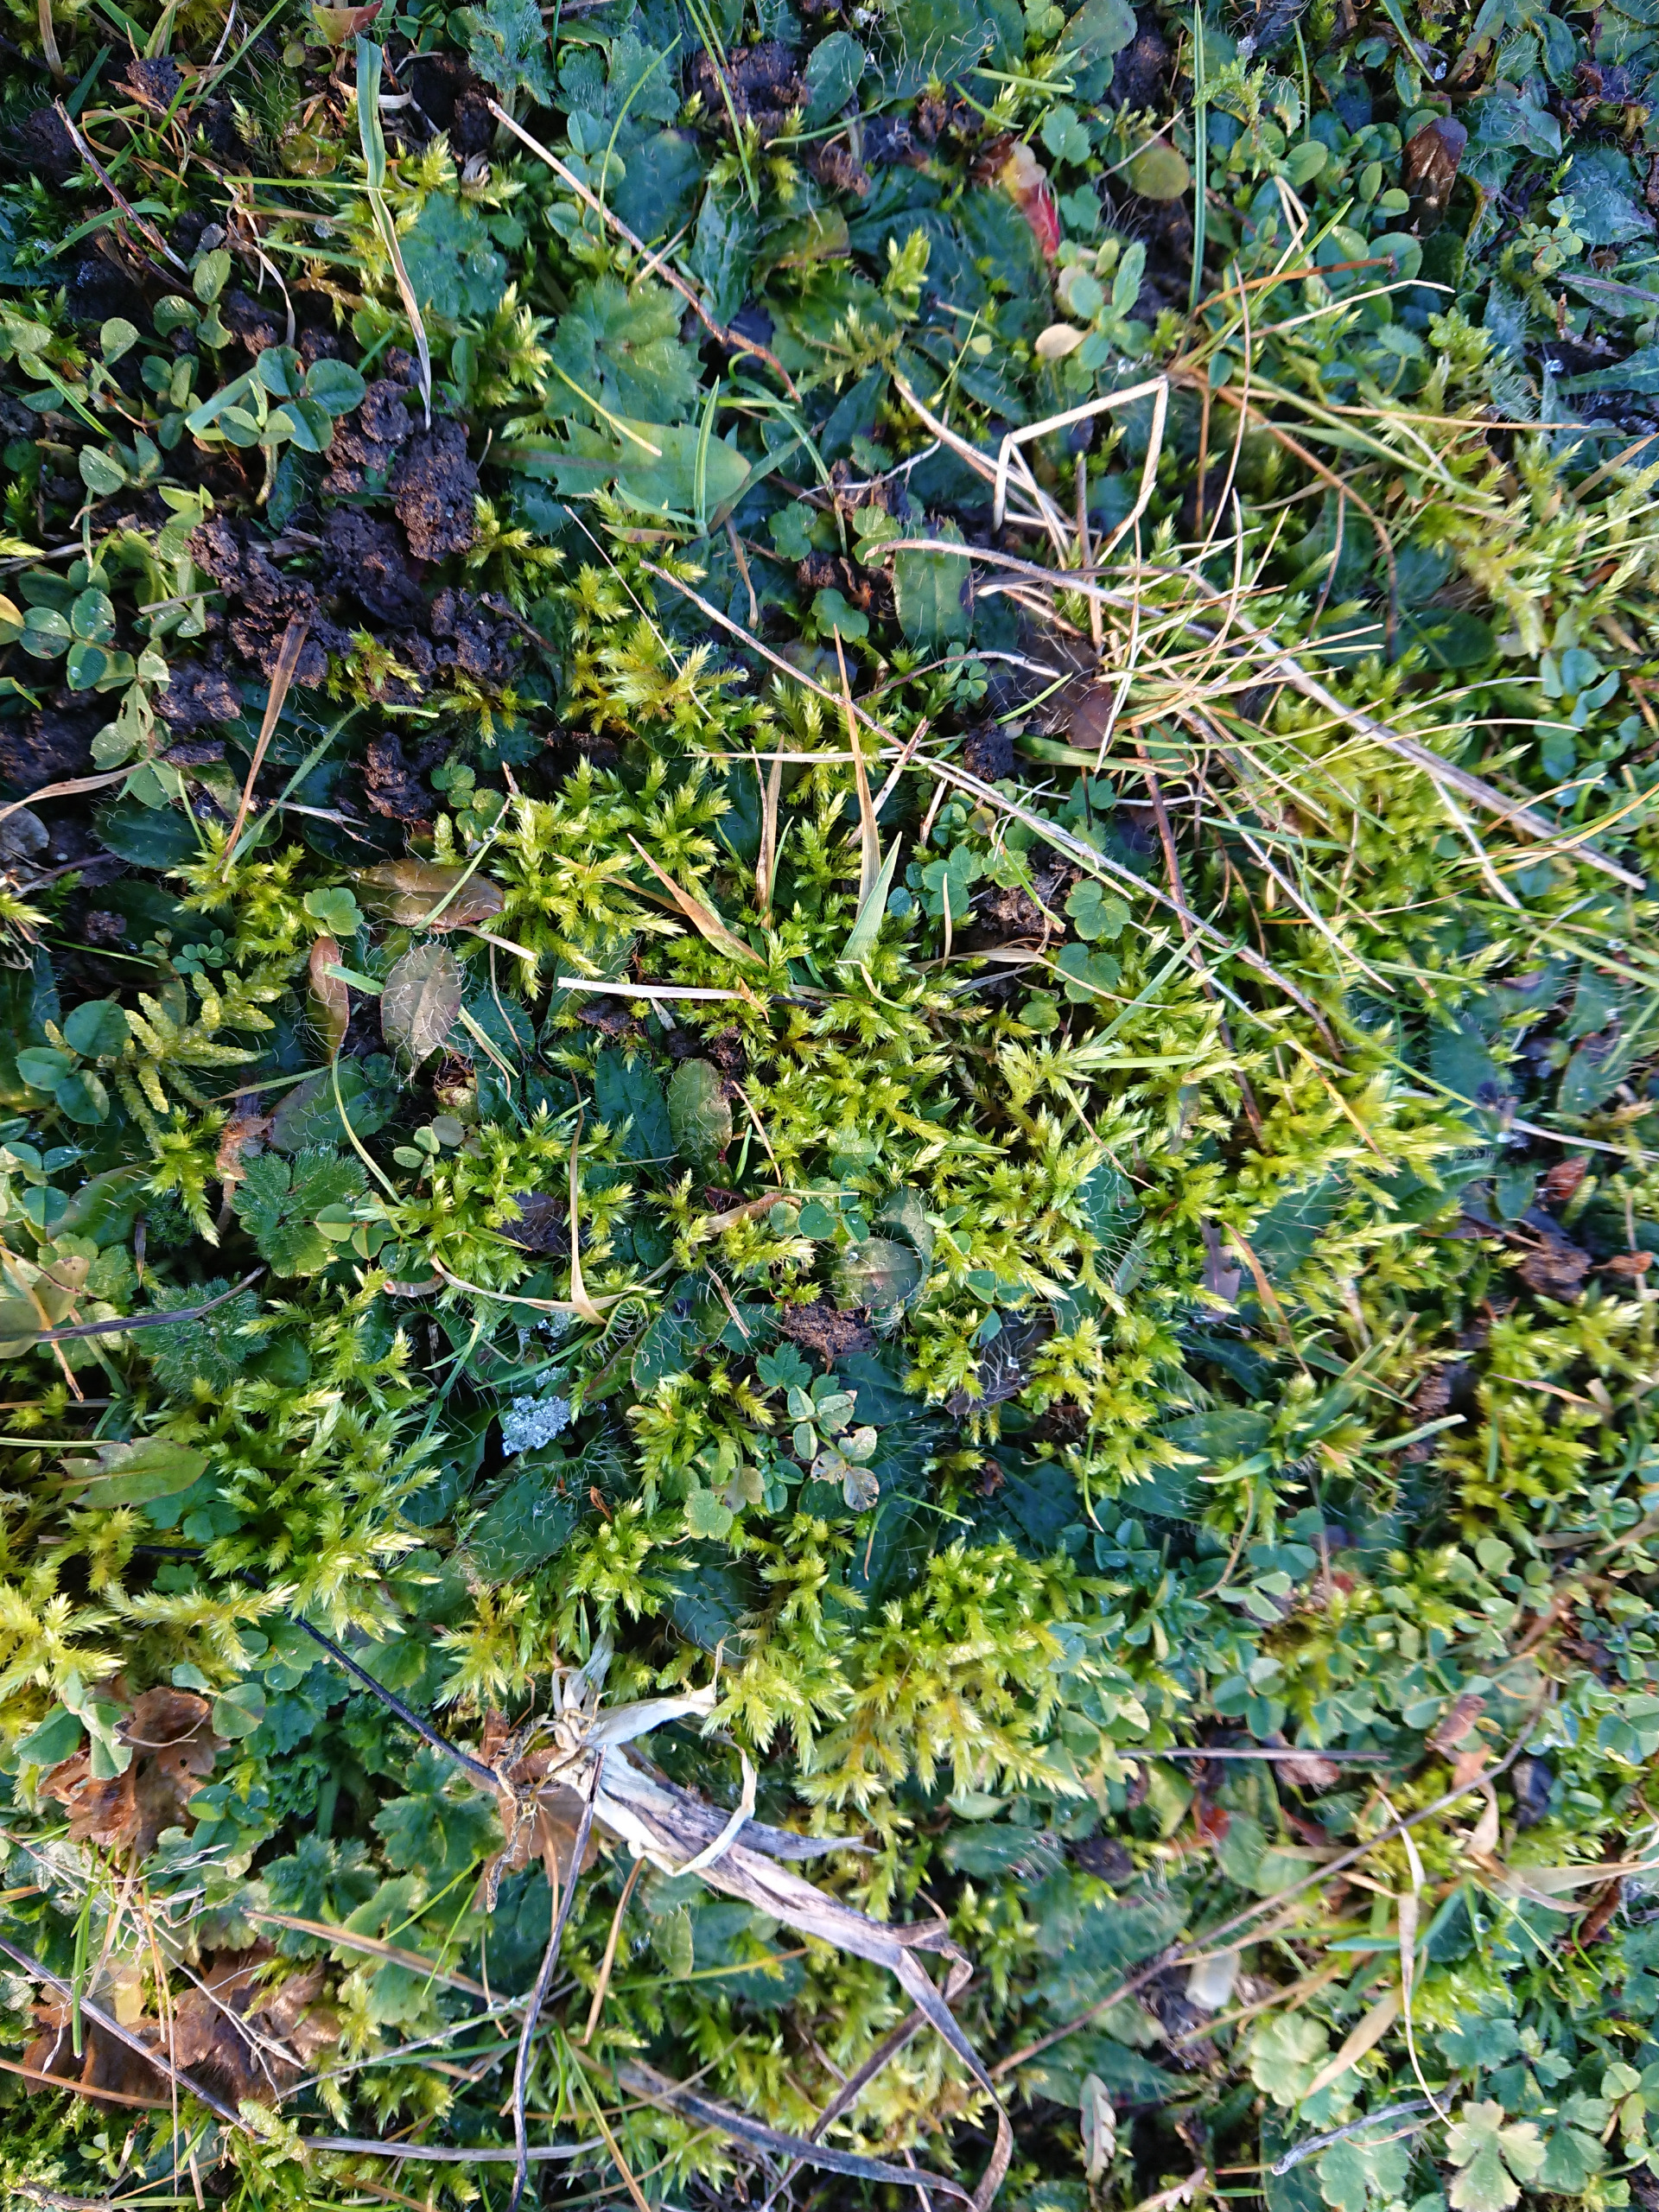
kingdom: Plantae
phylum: Bryophyta
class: Bryopsida
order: Hypnales
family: Brachytheciaceae
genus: Homalothecium
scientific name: Homalothecium lutescens
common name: Gul krumkapsel
